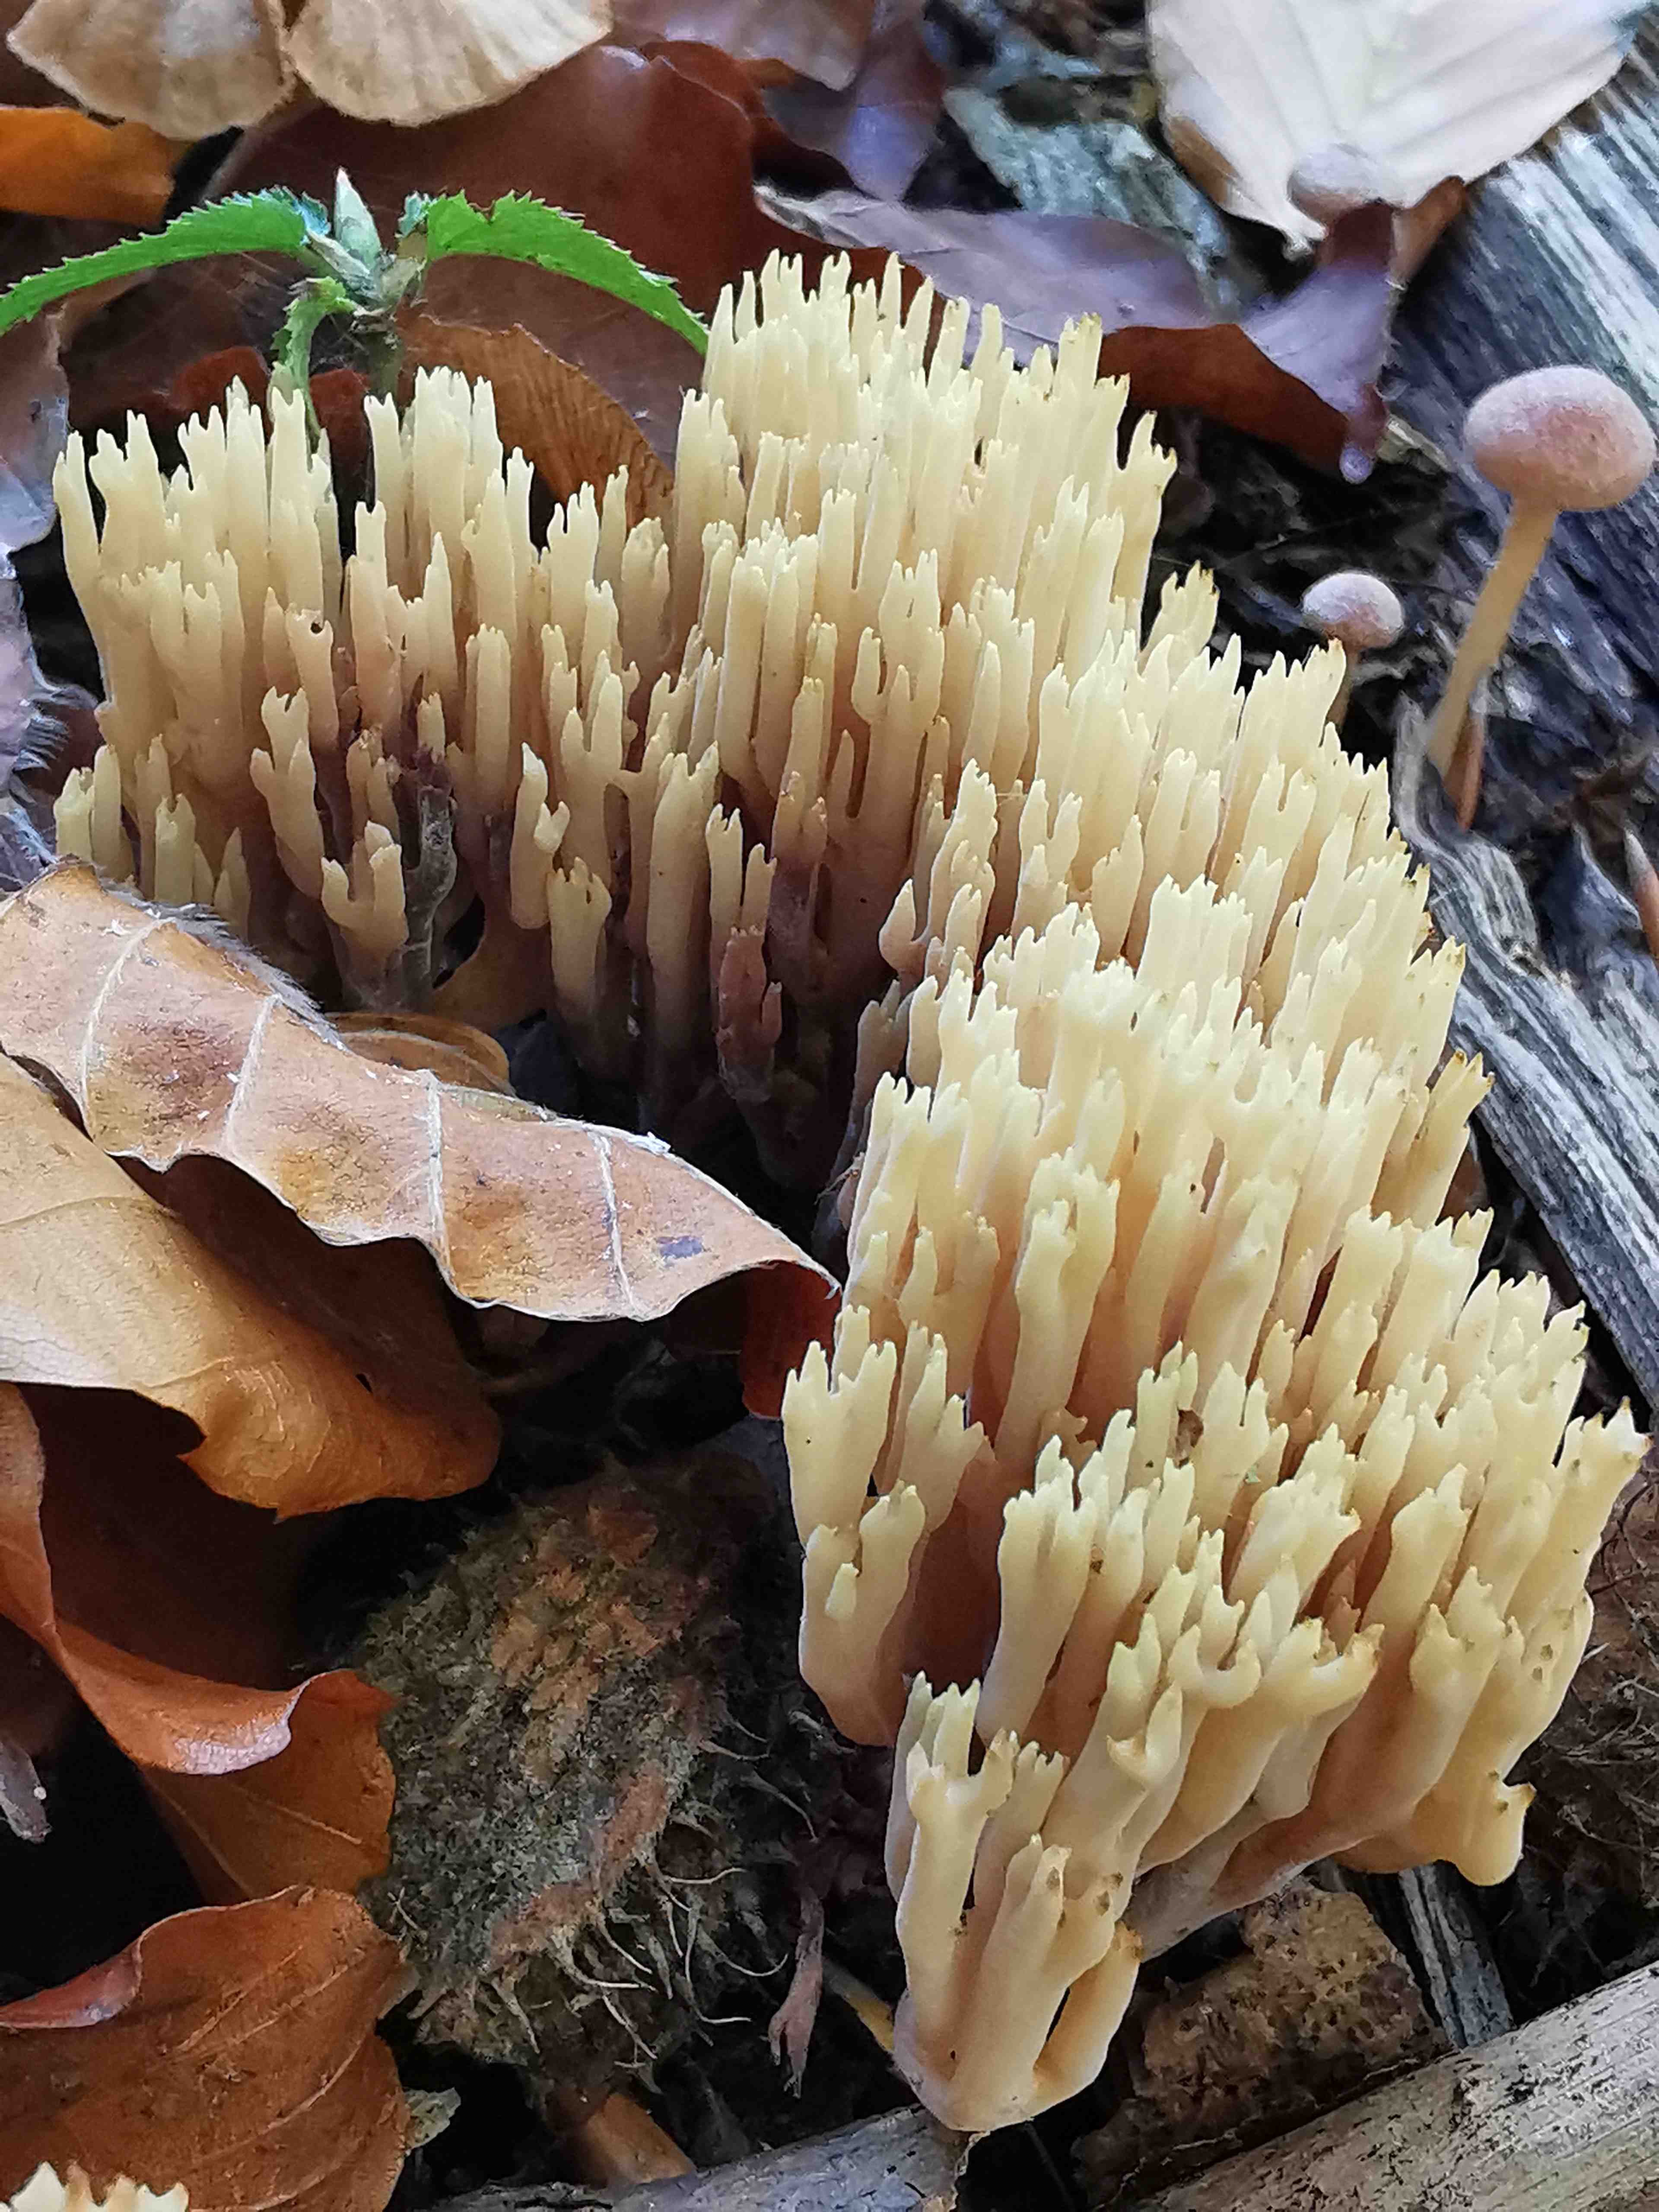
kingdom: Fungi
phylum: Basidiomycota
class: Agaricomycetes
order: Gomphales
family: Gomphaceae
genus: Ramaria
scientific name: Ramaria stricta
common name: rank koralsvamp
